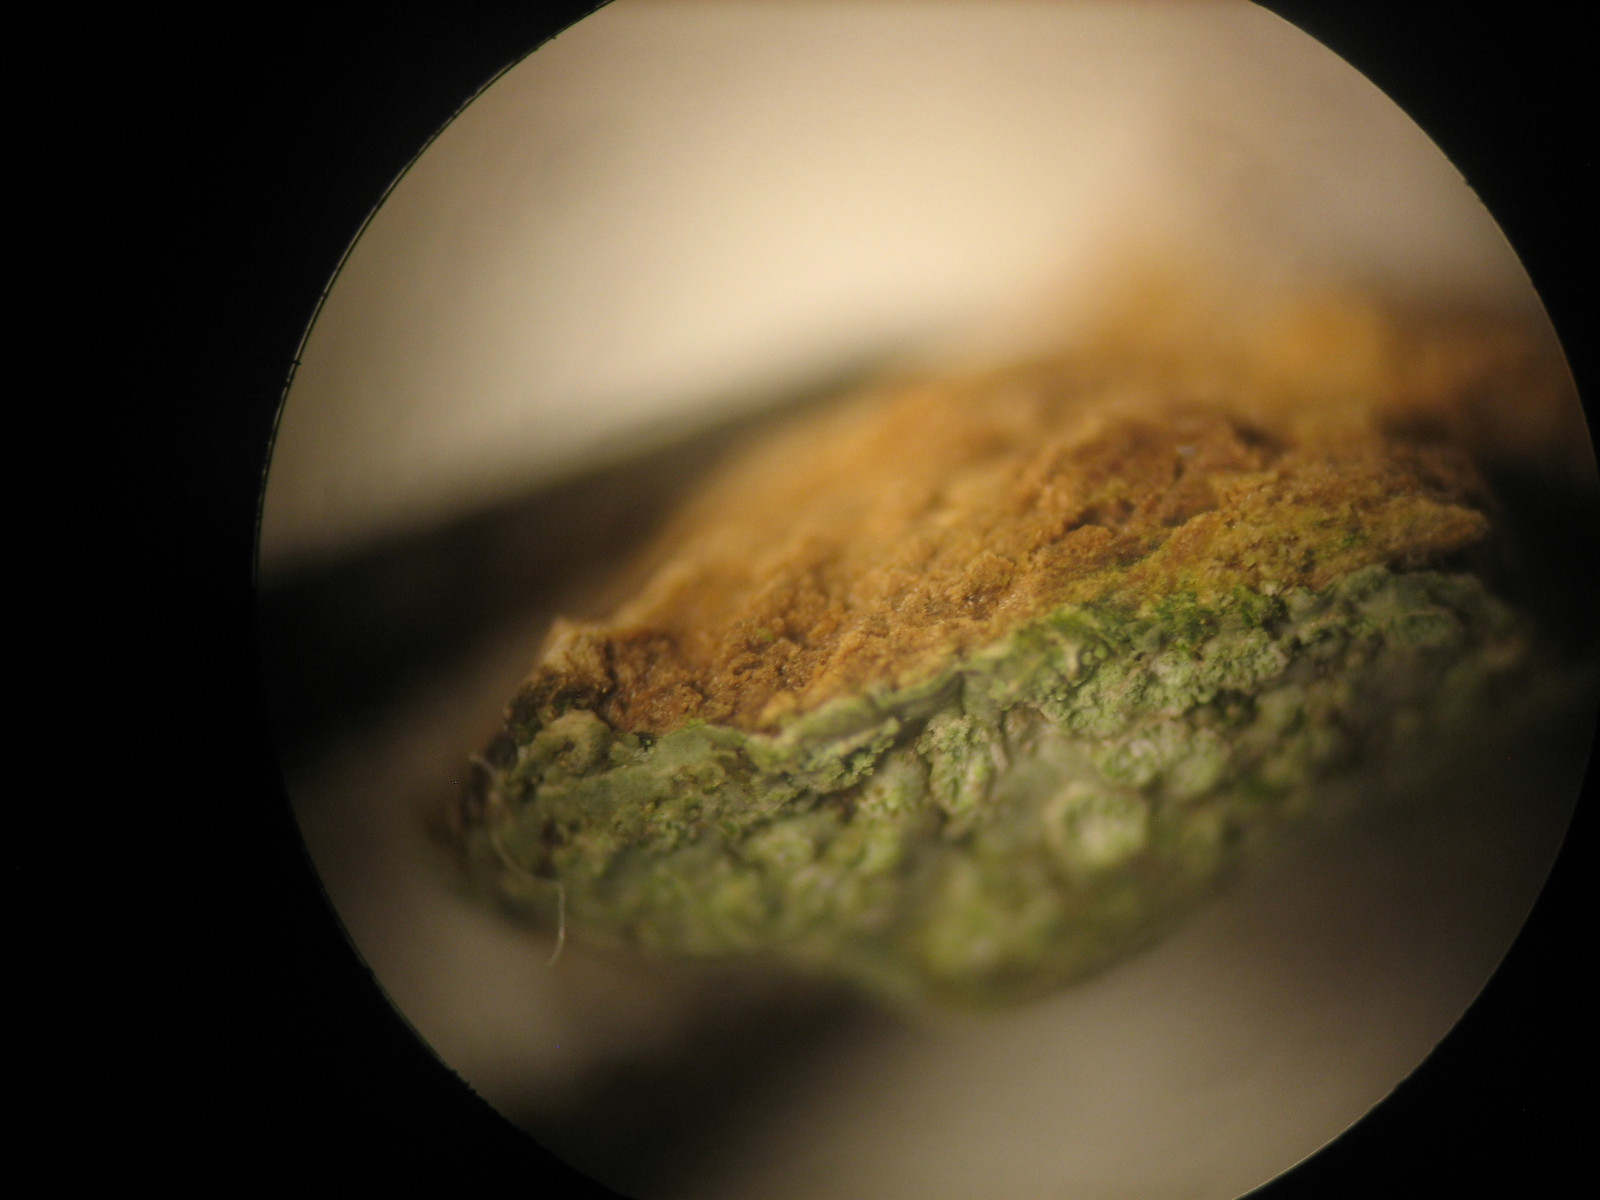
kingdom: Fungi
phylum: Ascomycota
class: Lecanoromycetes
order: Caliciales
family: Physciaceae
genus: Hyperphyscia
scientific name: Hyperphyscia adglutinata
